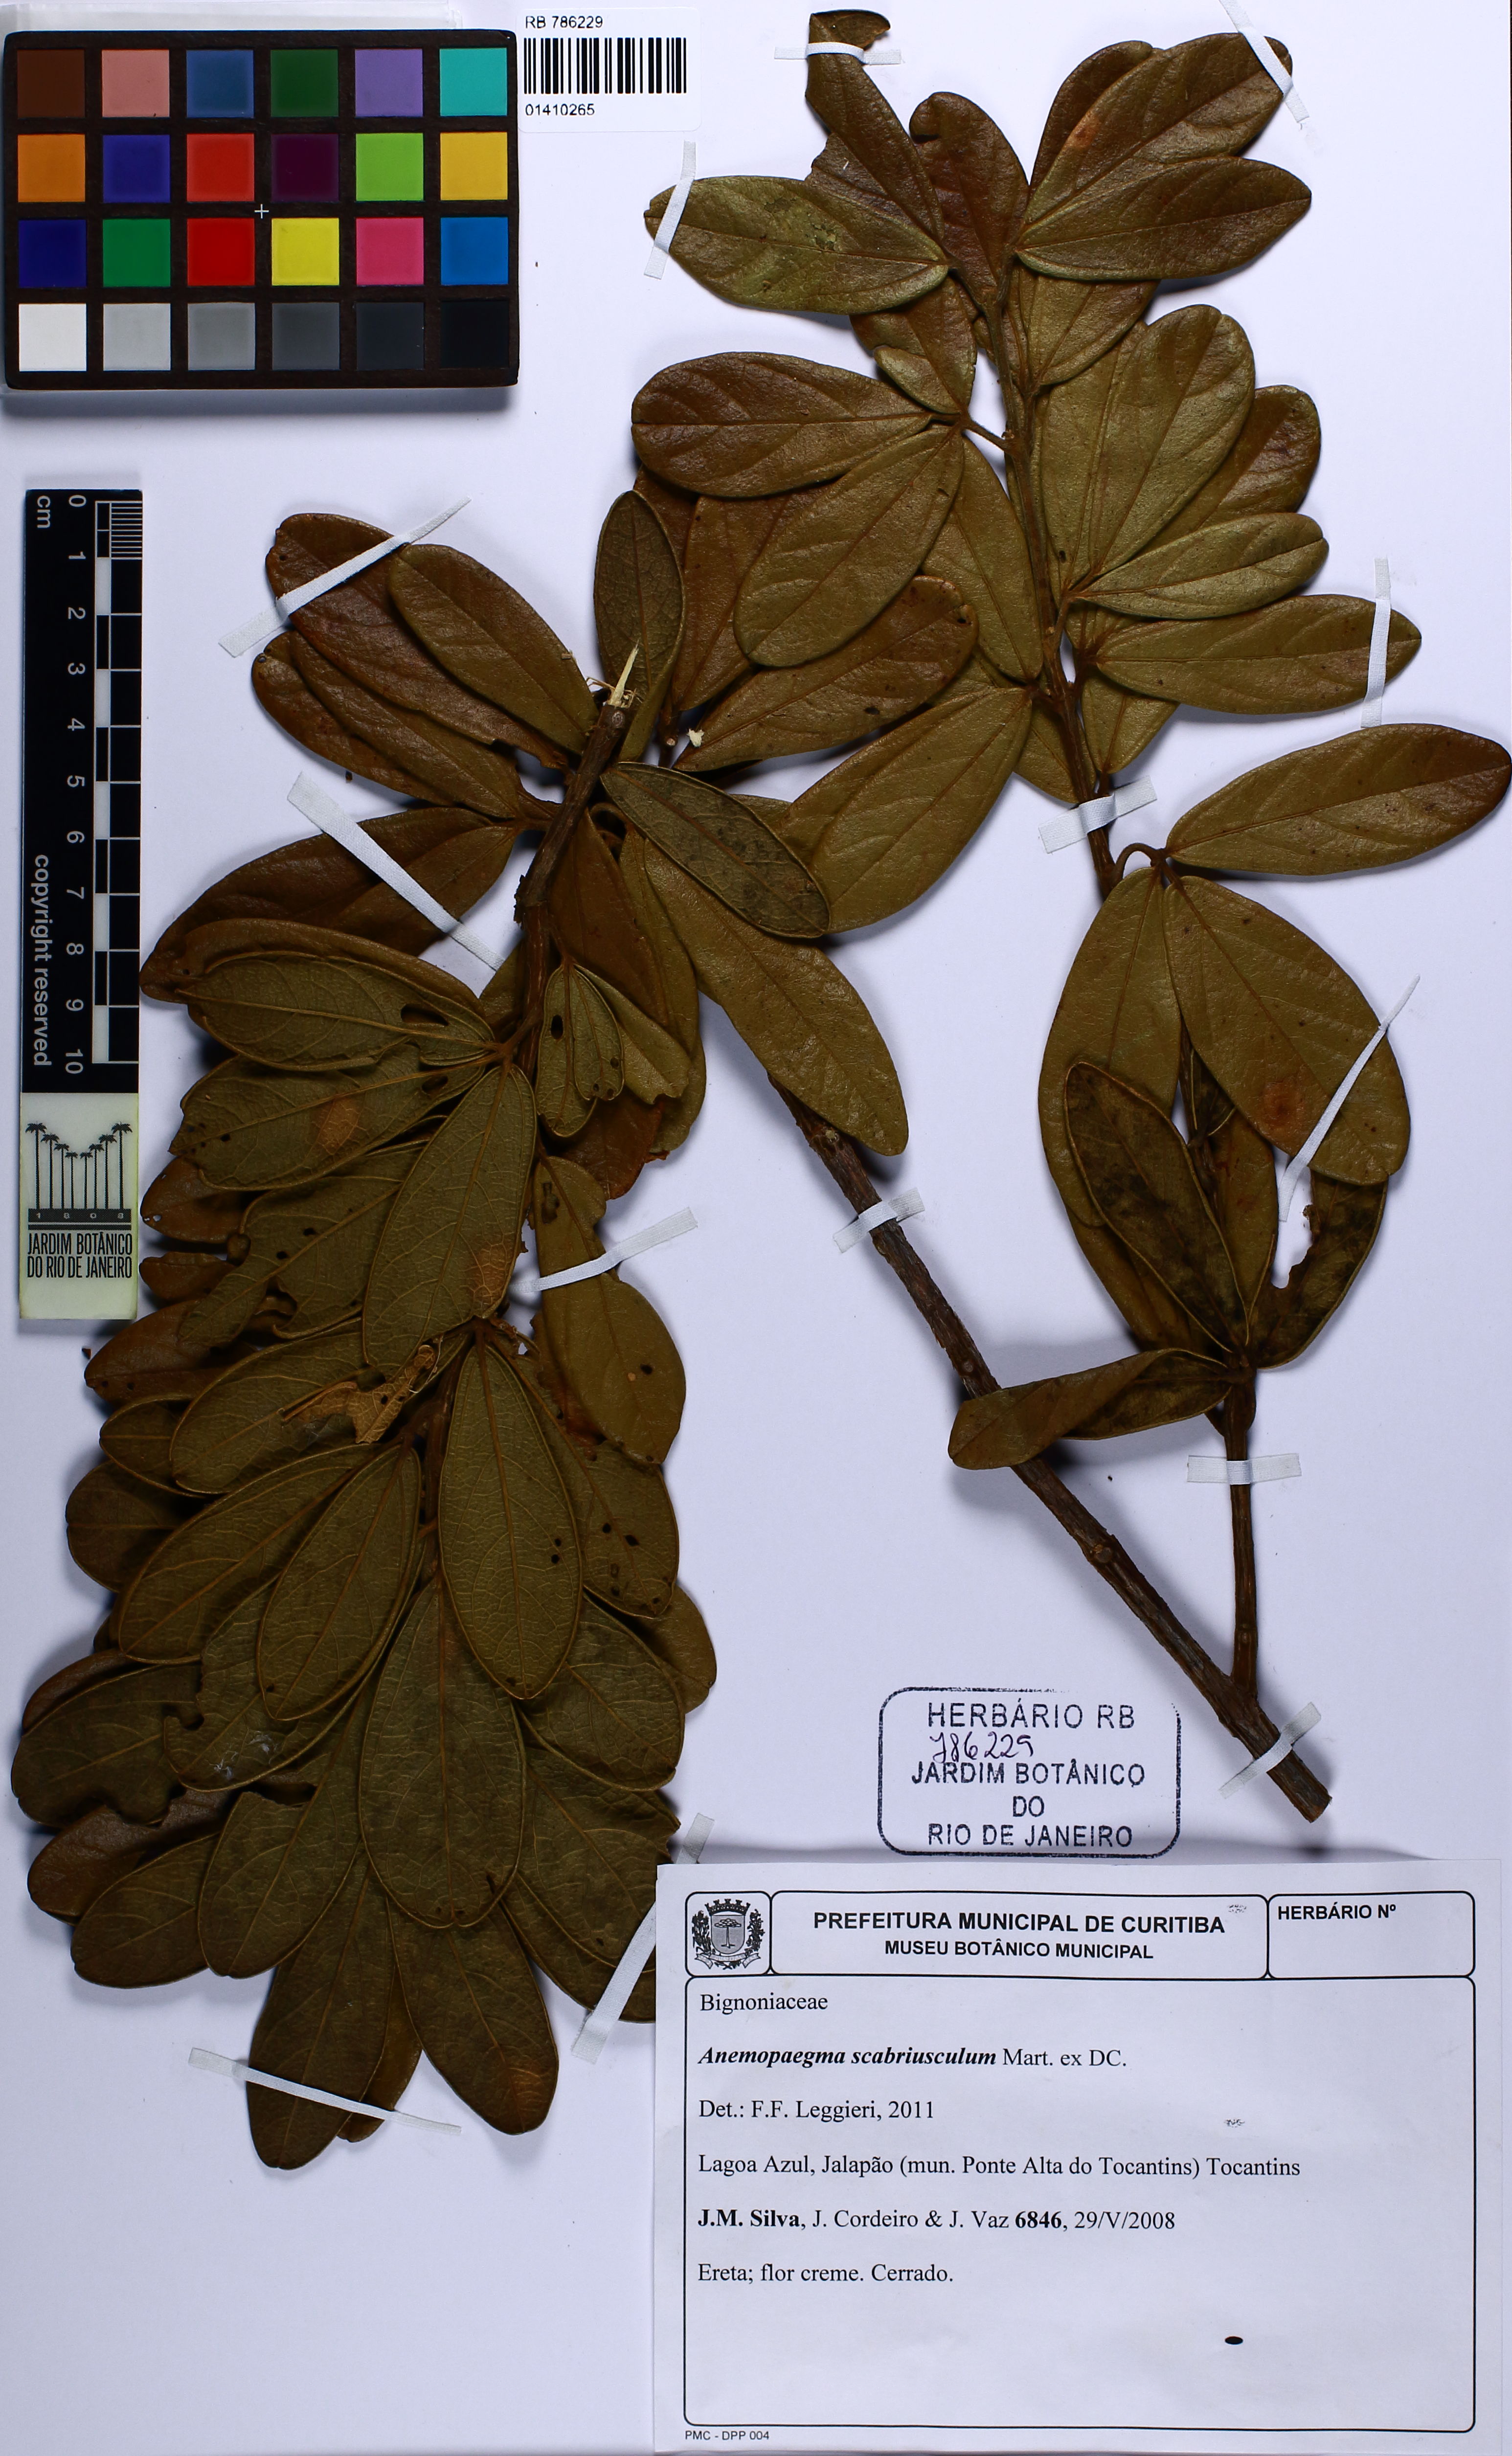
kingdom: Plantae
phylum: Tracheophyta
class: Magnoliopsida
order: Lamiales
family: Bignoniaceae
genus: Anemopaegma
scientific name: Anemopaegma scabriusculum
